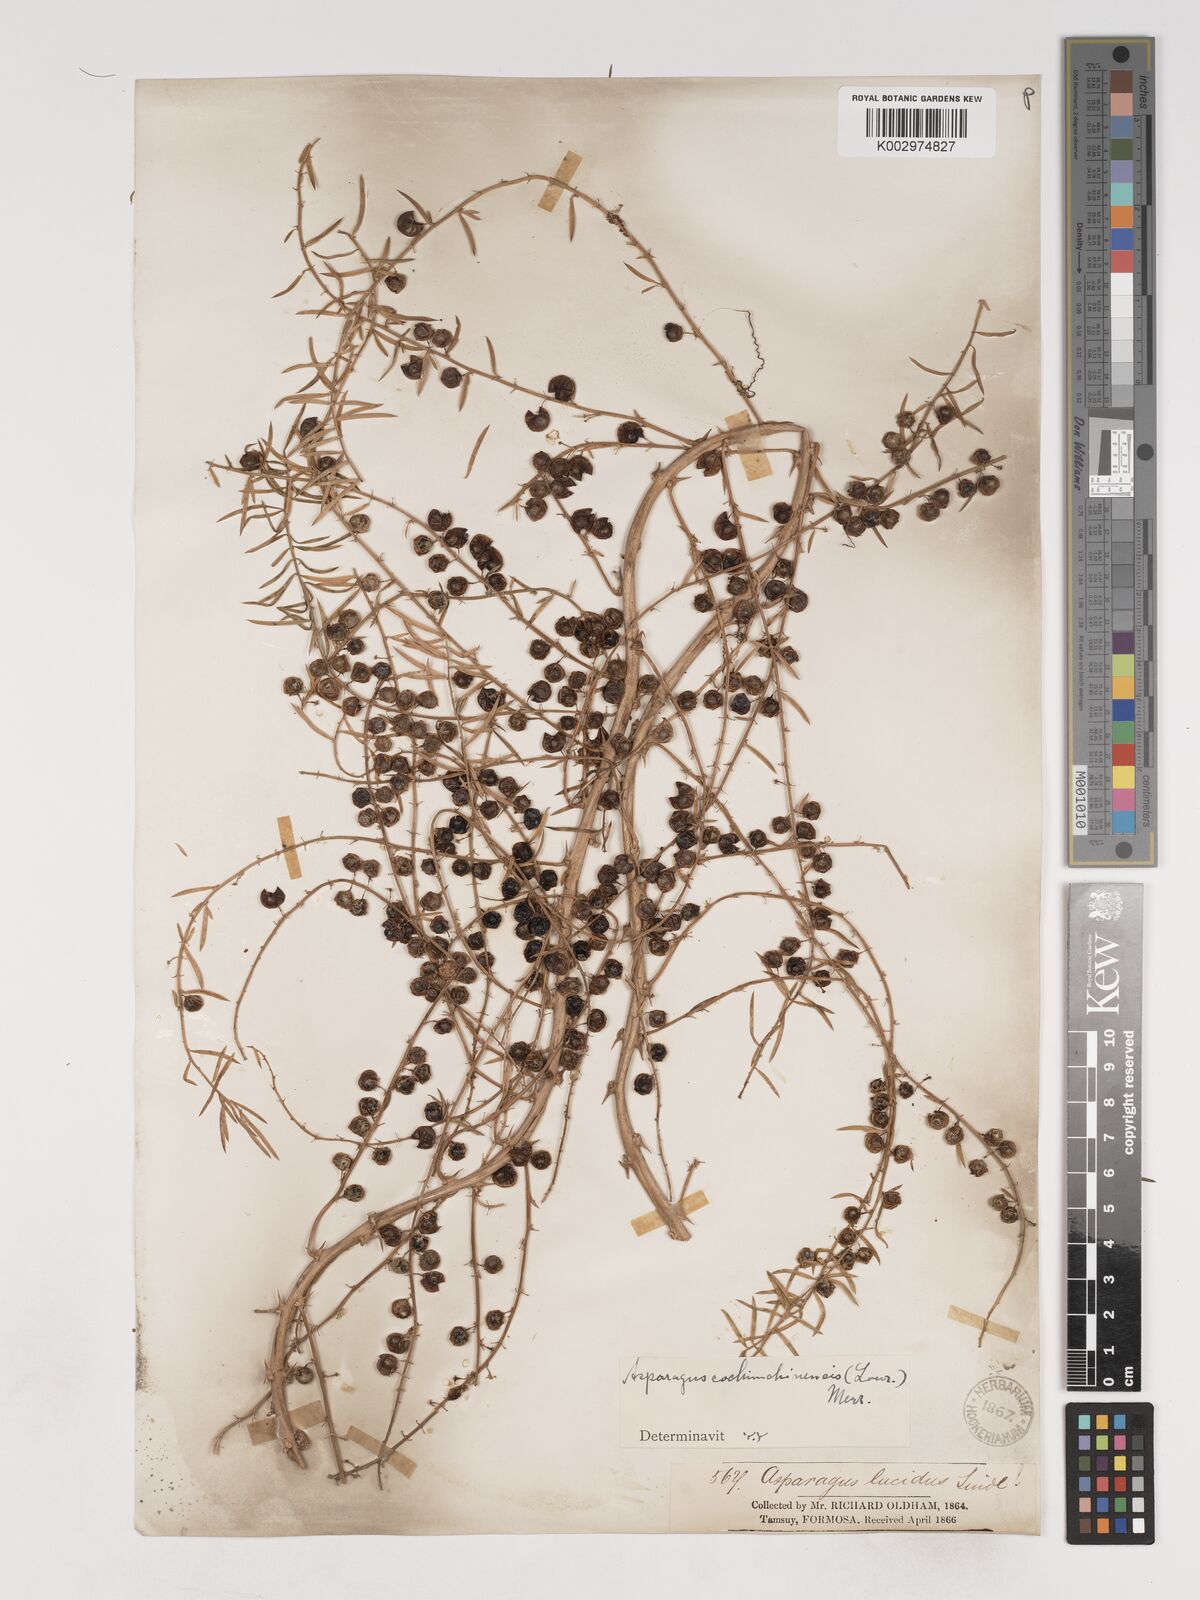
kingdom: Plantae
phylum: Tracheophyta
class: Liliopsida
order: Asparagales
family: Asparagaceae
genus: Asparagus
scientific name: Asparagus cochinchinensis
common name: Chinese asparagus
